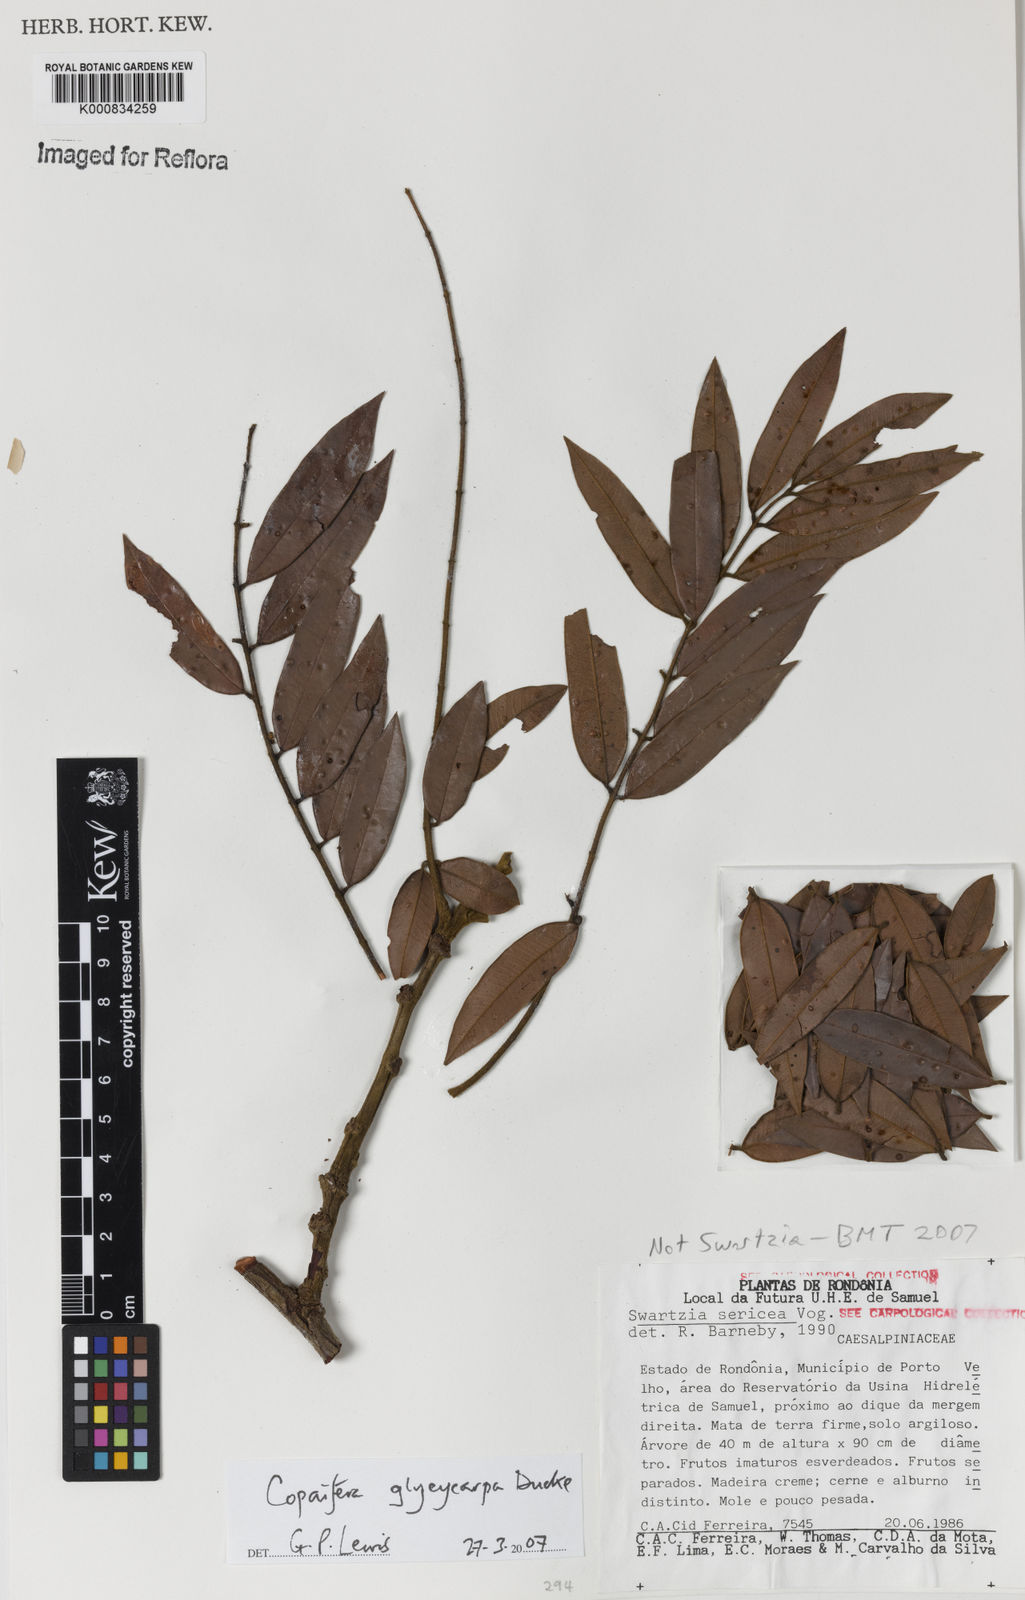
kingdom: Plantae
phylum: Tracheophyta
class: Magnoliopsida
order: Fabales
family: Fabaceae
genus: Copaifera
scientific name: Copaifera glycycarpa
